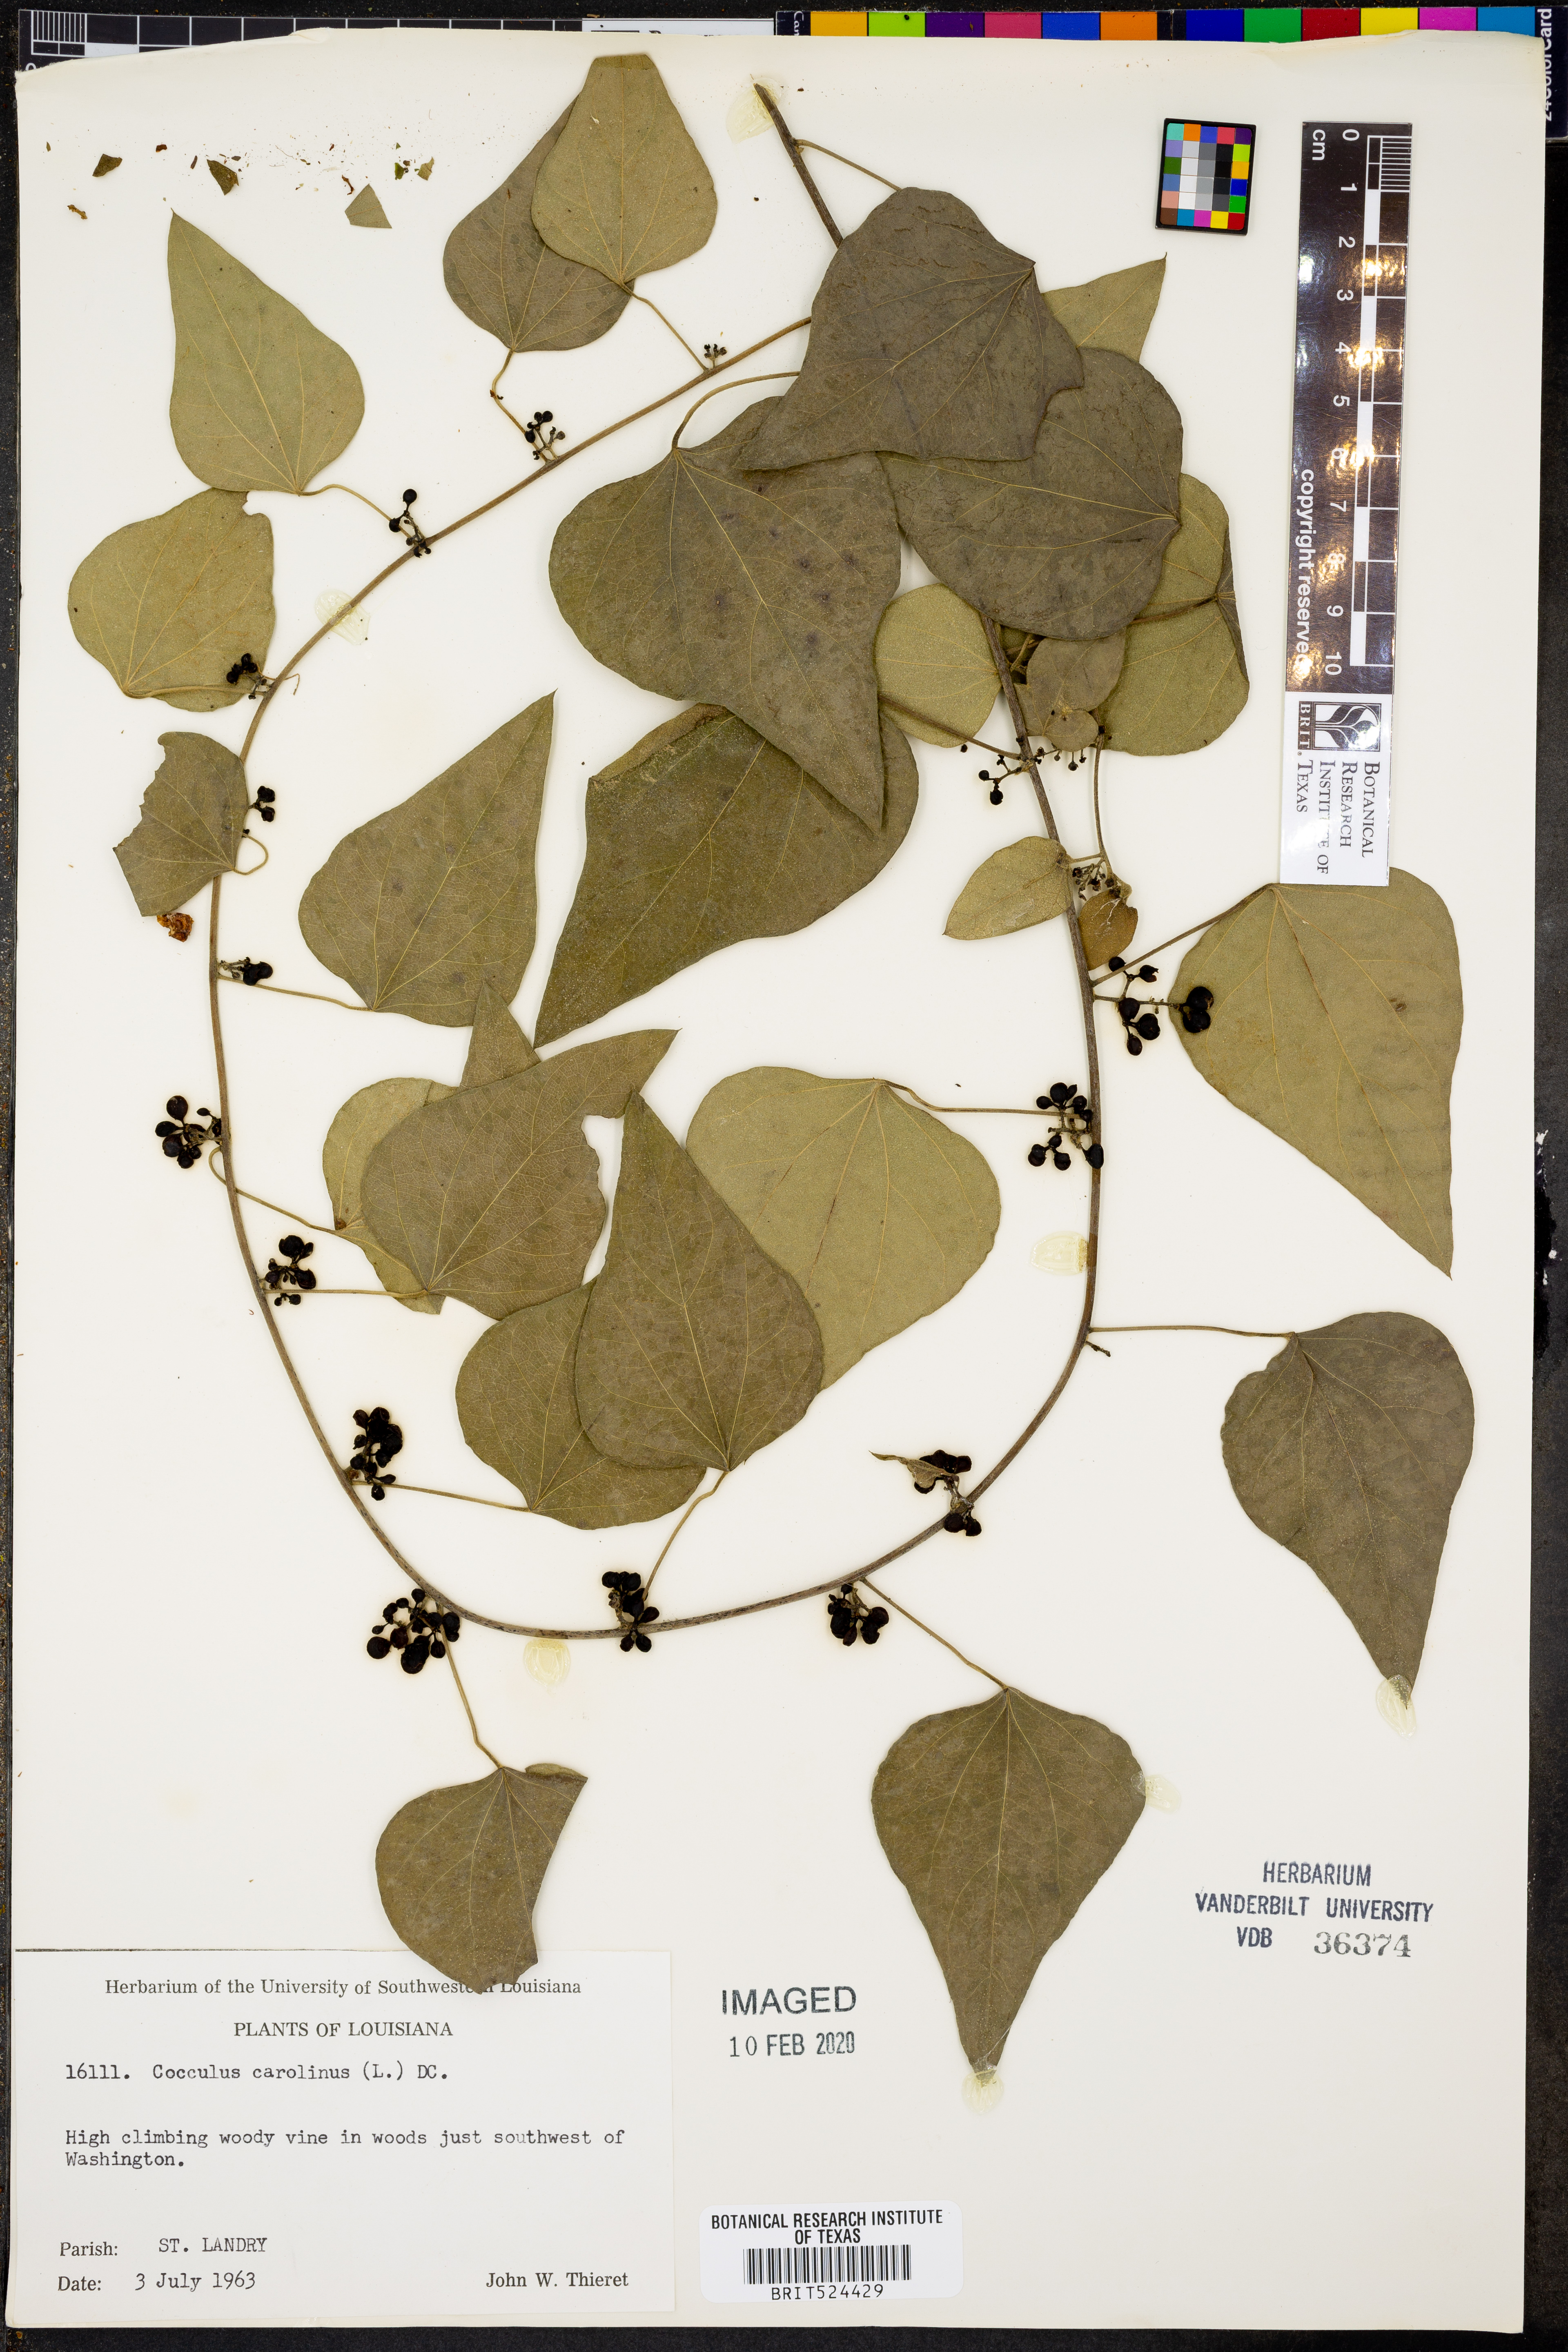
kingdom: Plantae
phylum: Tracheophyta
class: Magnoliopsida
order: Ranunculales
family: Menispermaceae
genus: Cocculus
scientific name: Cocculus carolinus
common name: Carolina moonseed
